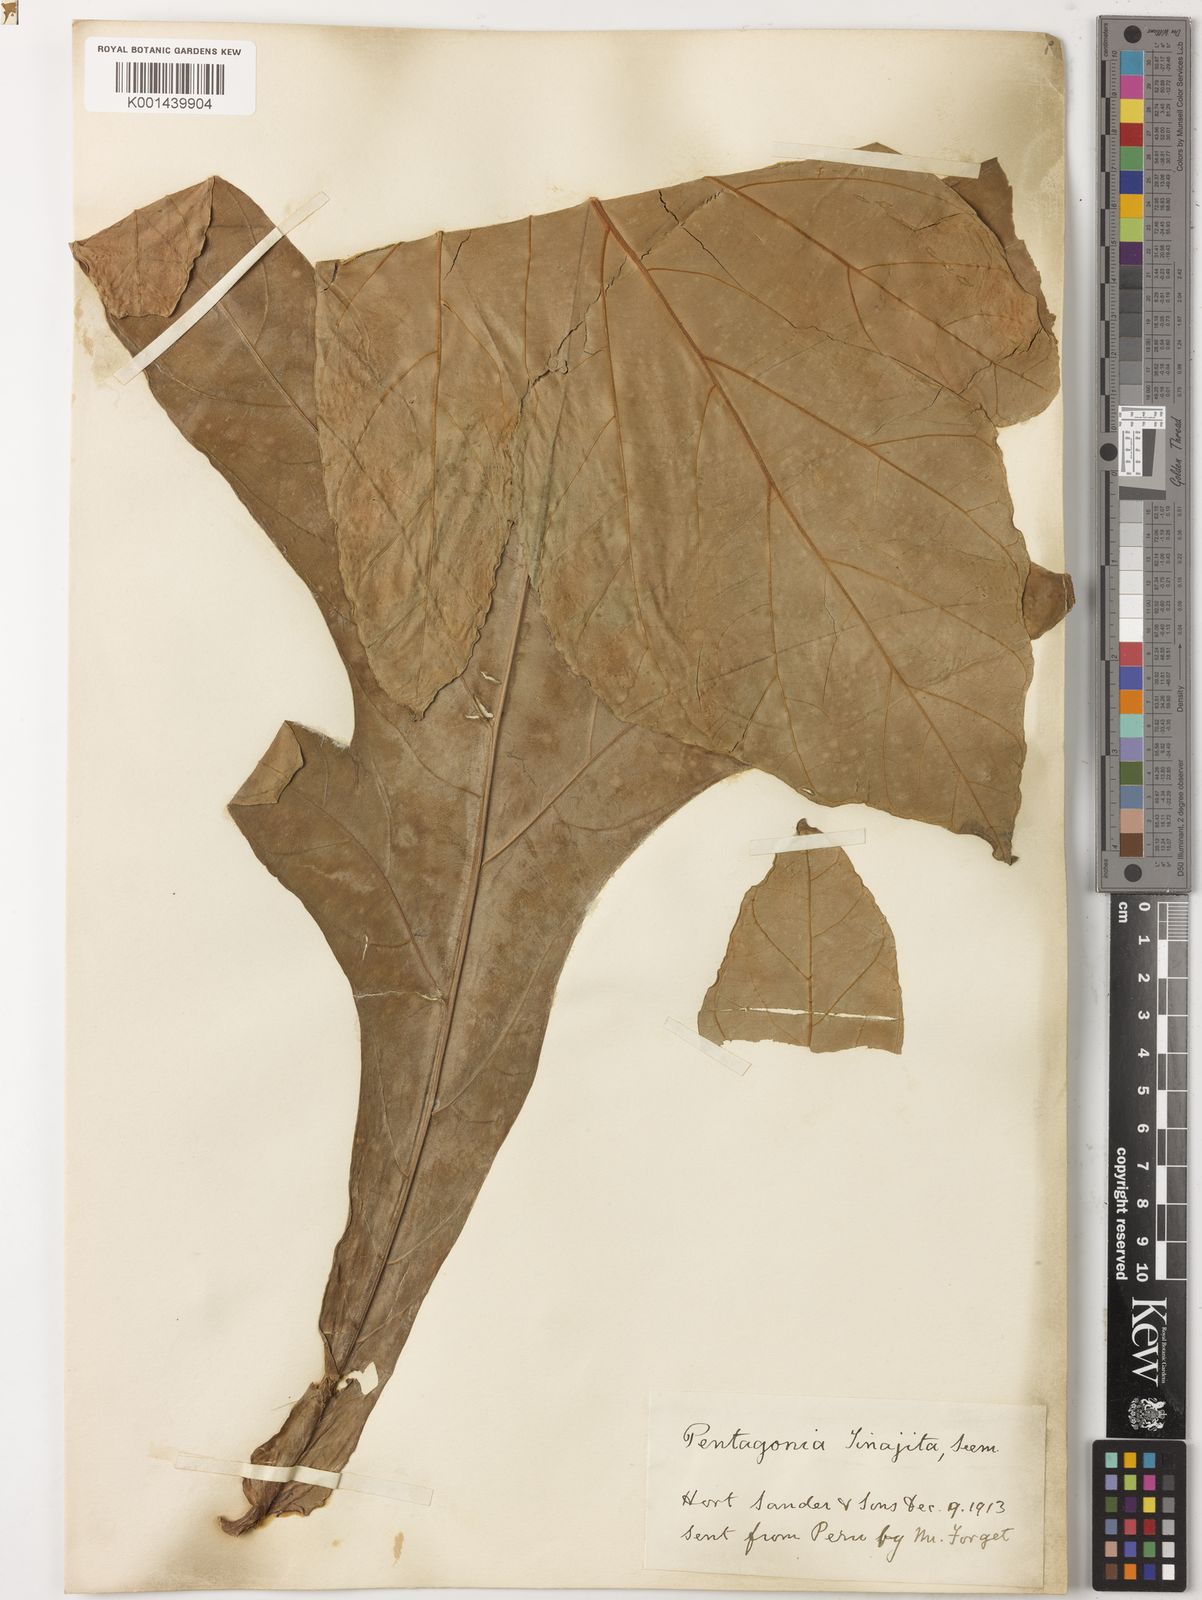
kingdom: Plantae
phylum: Tracheophyta
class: Magnoliopsida
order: Gentianales
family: Rubiaceae
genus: Pentagonia
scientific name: Pentagonia tinajita
